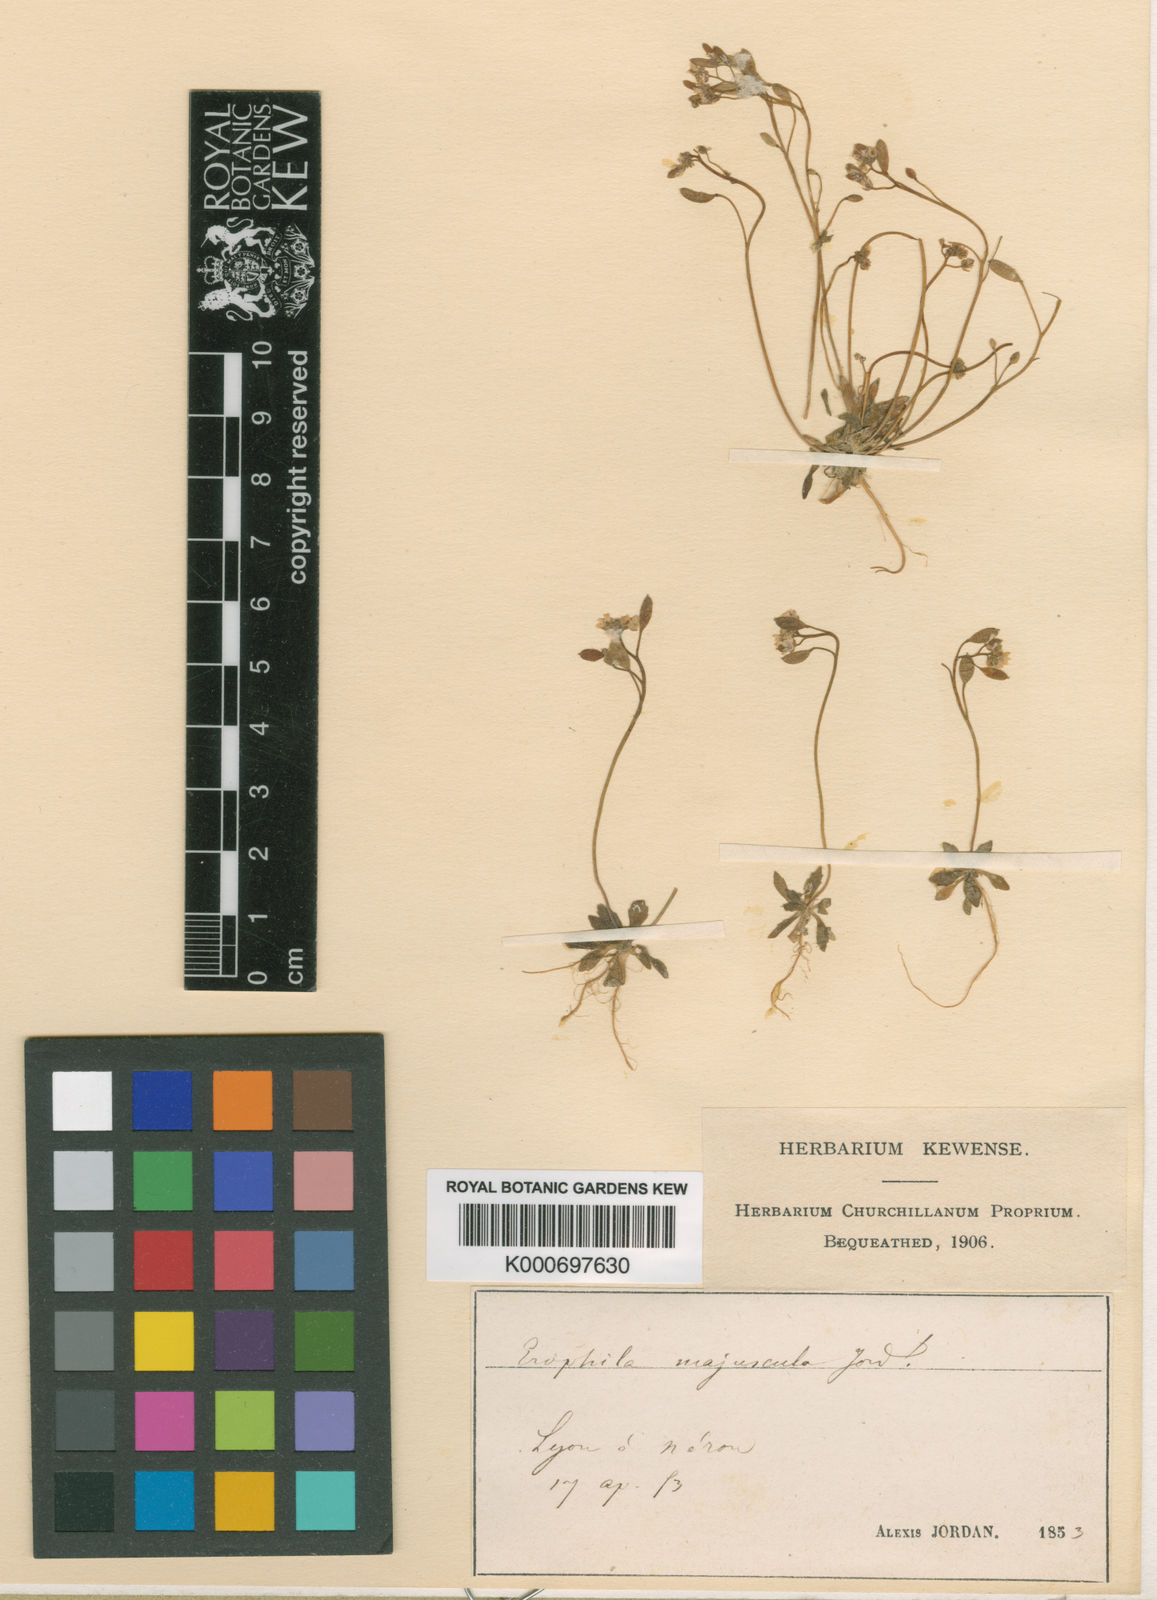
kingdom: Plantae
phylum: Tracheophyta
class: Magnoliopsida
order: Brassicales
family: Brassicaceae
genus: Draba
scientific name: Draba verna
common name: Spring draba
